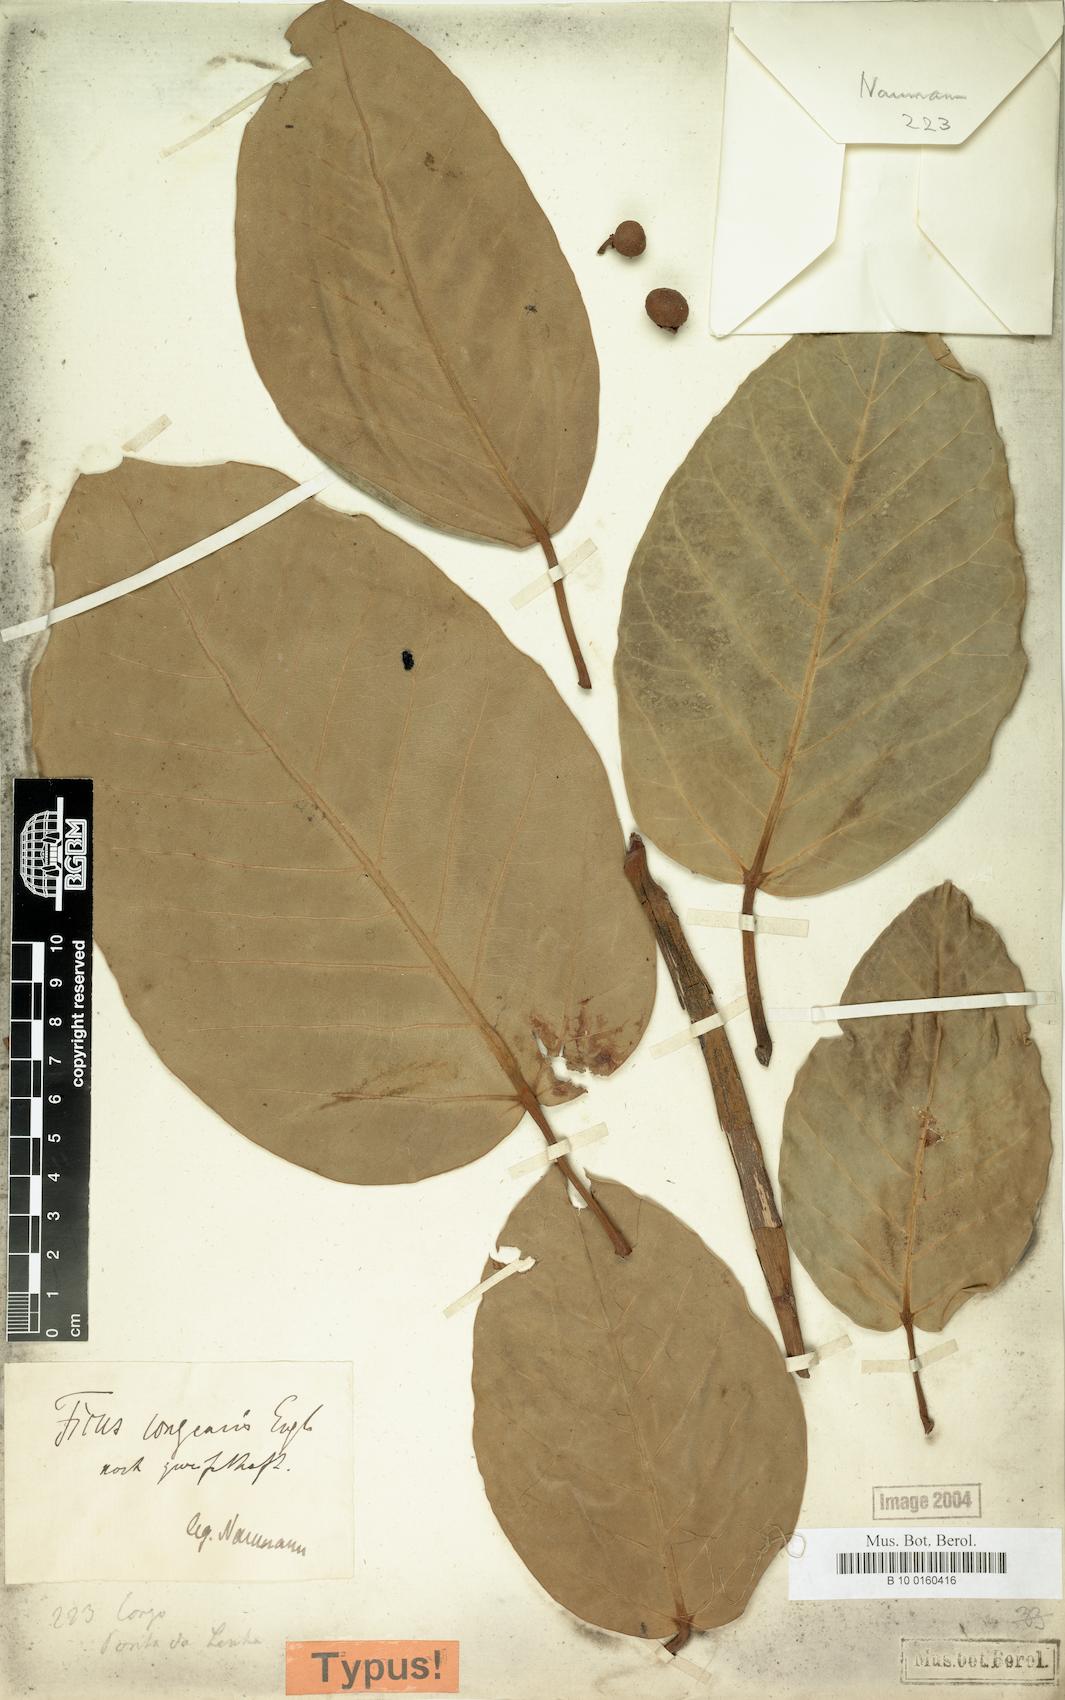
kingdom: Plantae
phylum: Tracheophyta
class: Magnoliopsida
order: Rosales
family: Moraceae
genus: Ficus
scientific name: Ficus trichopoda
